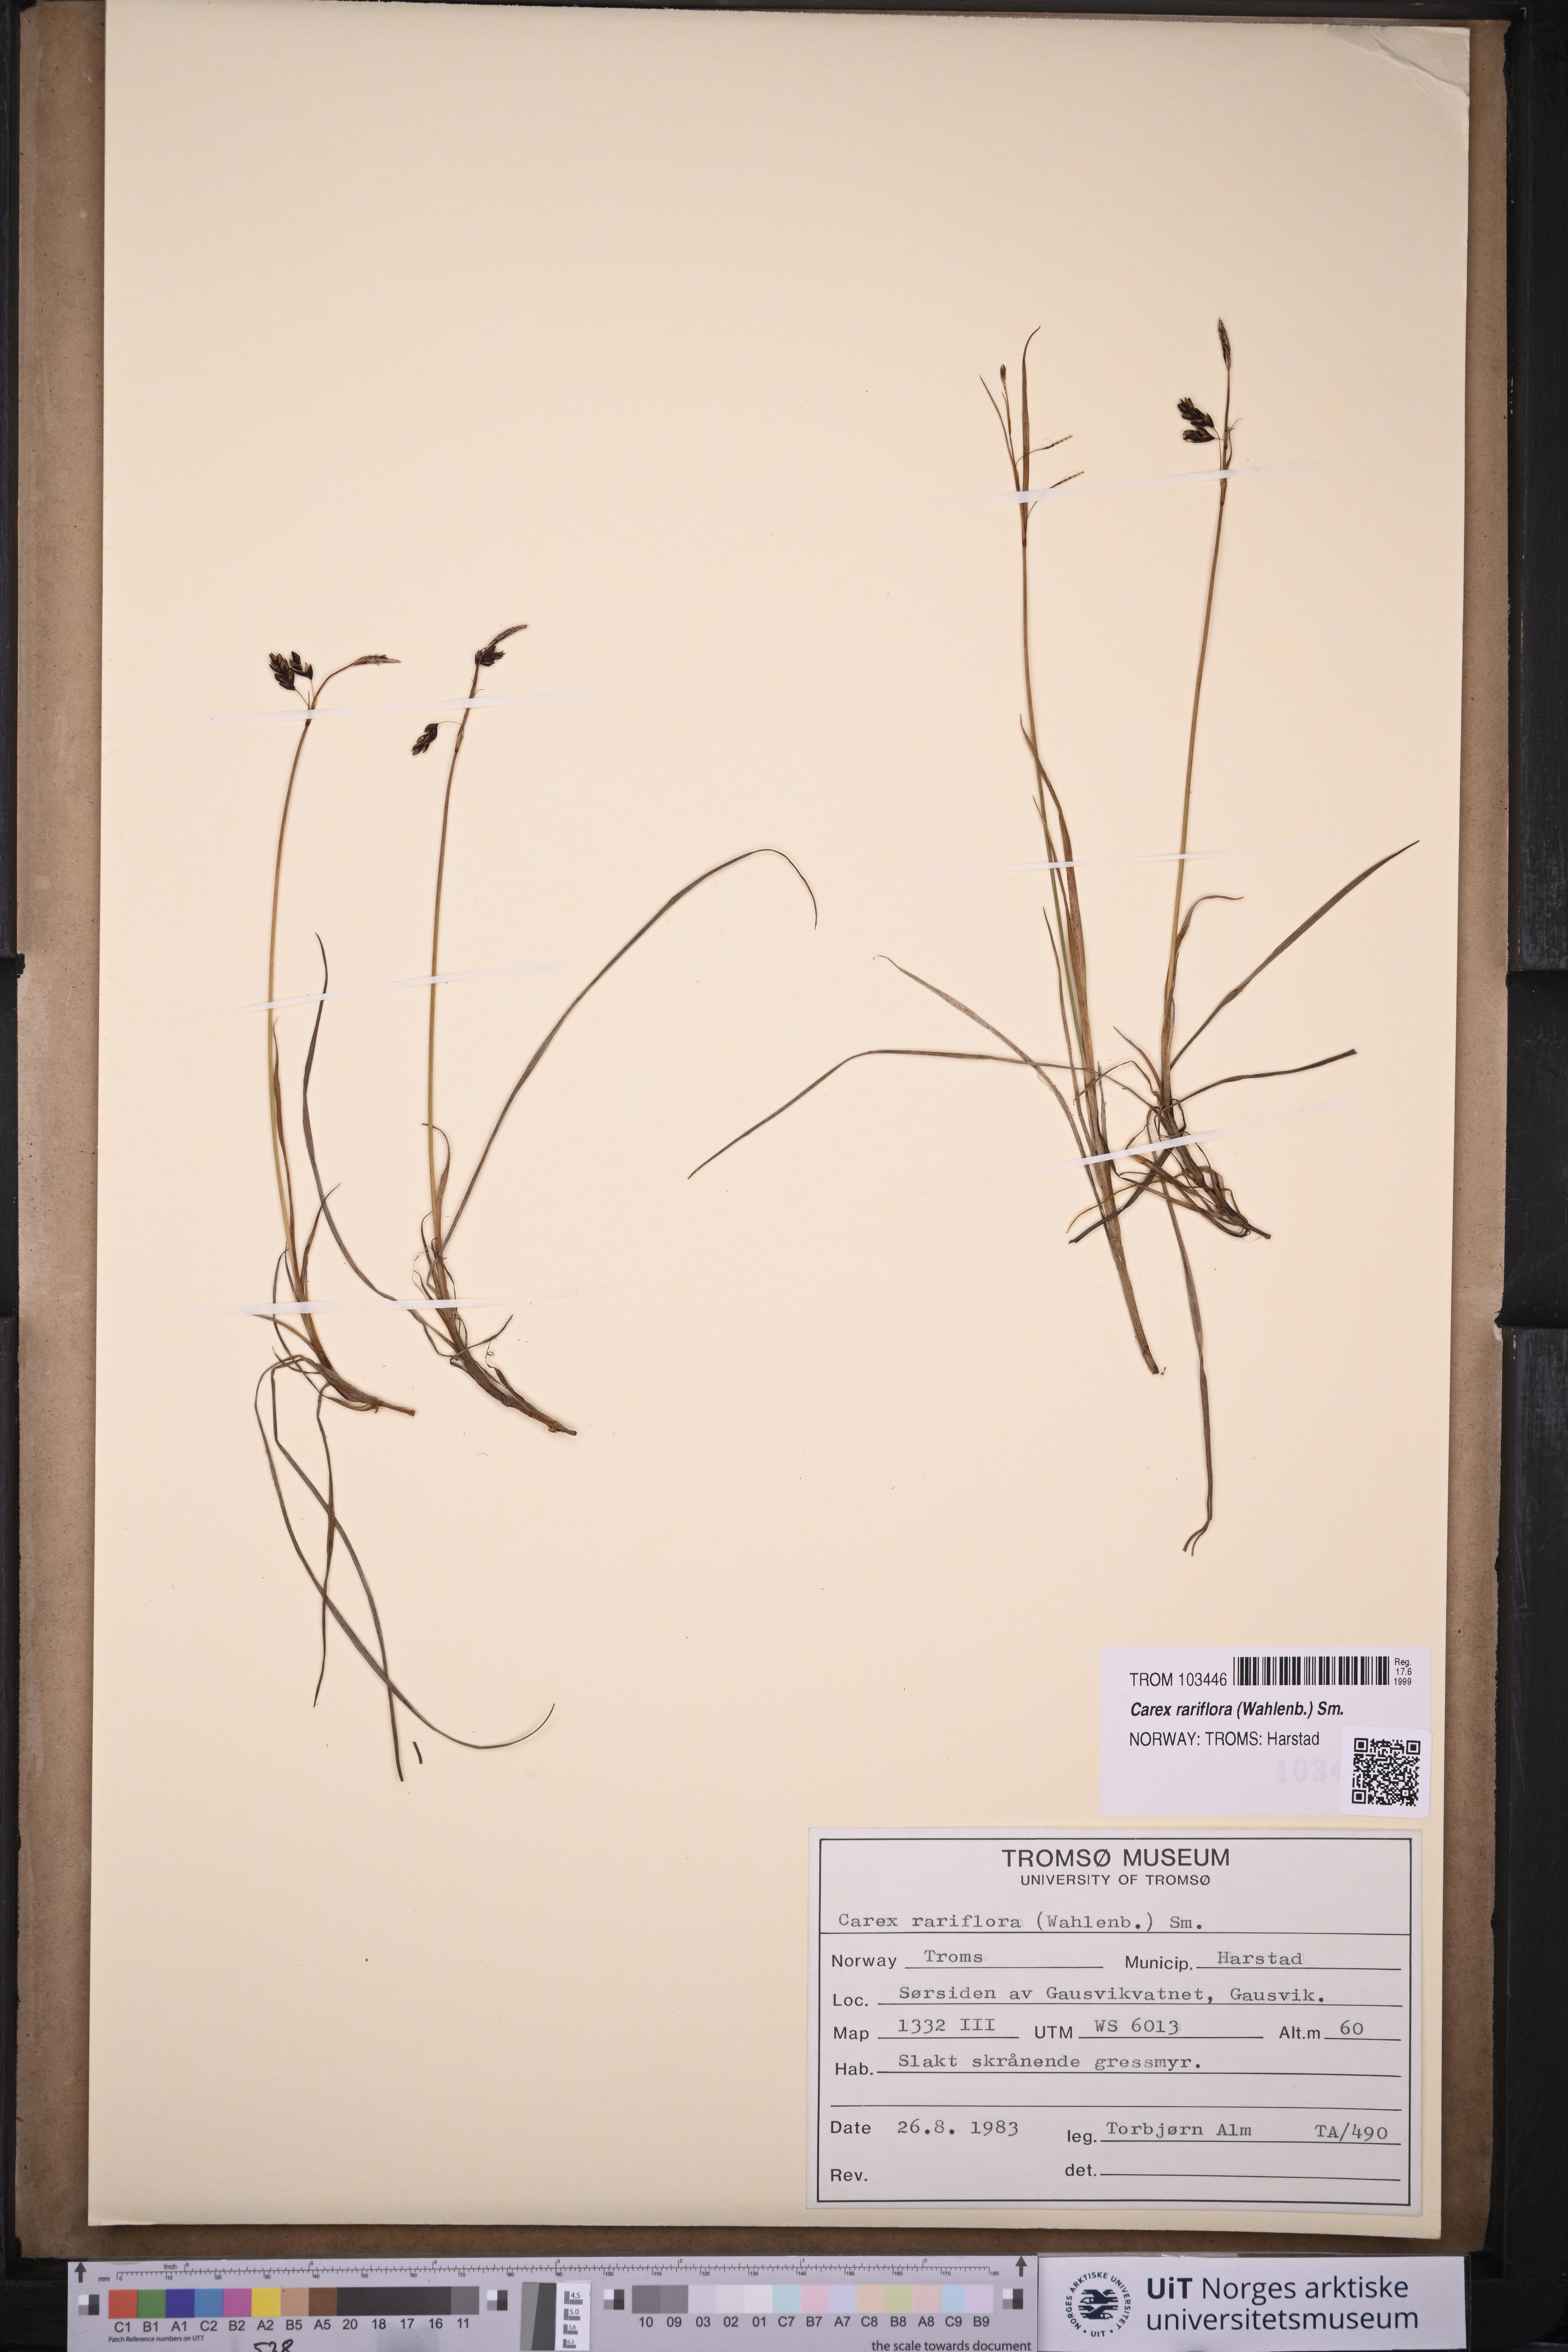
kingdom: Plantae
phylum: Tracheophyta
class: Liliopsida
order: Poales
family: Cyperaceae
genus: Carex
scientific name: Carex rariflora
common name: Loose-flowered alpine sedge
